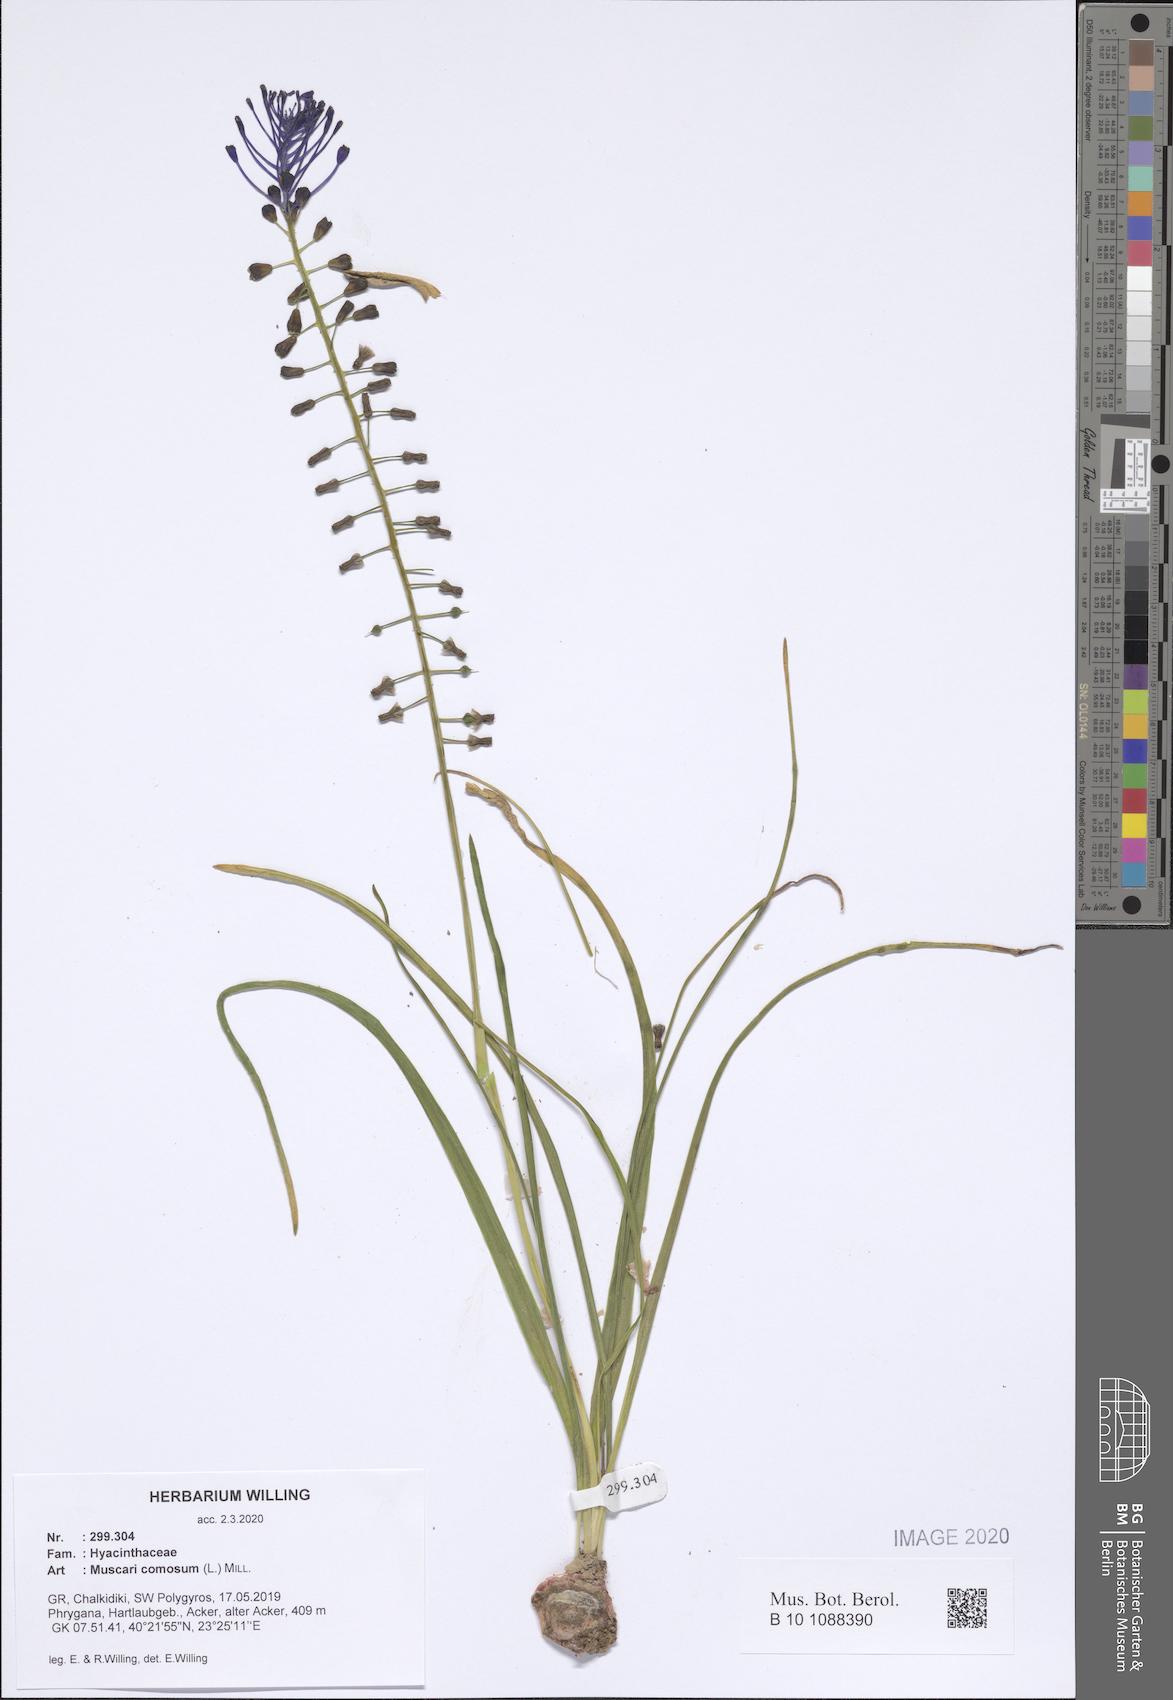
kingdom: Plantae
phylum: Tracheophyta
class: Liliopsida
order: Asparagales
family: Asparagaceae
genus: Muscari
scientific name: Muscari comosum
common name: Tassel hyacinth
